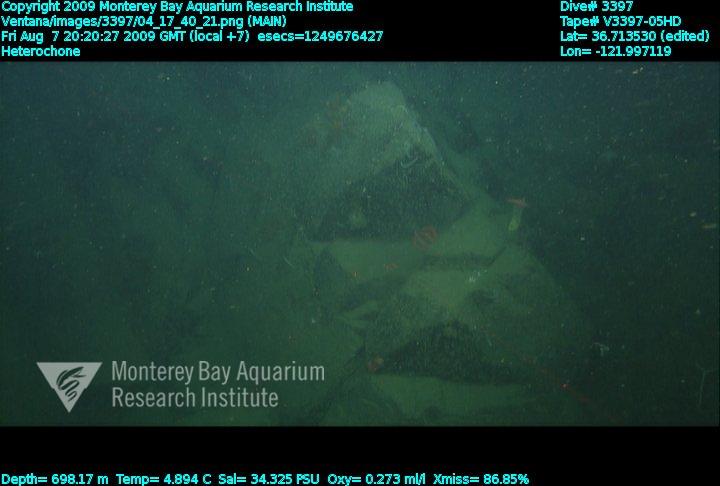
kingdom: Animalia
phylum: Porifera
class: Hexactinellida
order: Sceptrulophora
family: Aphrocallistidae
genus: Heterochone
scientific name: Heterochone
